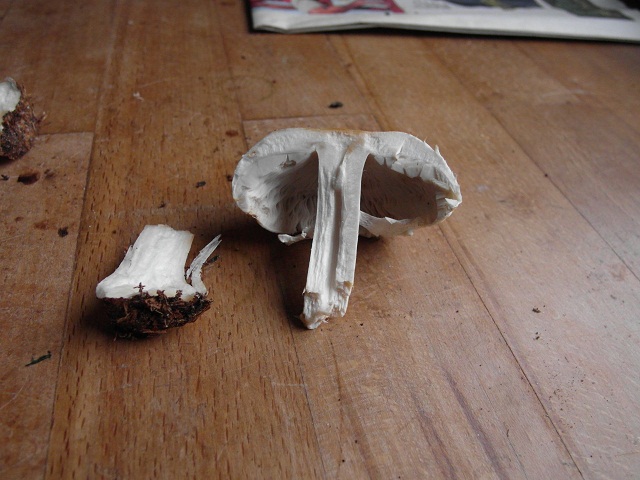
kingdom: Fungi
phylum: Basidiomycota
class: Agaricomycetes
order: Agaricales
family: Agaricaceae
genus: Agaricus
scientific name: Agaricus sylvicola
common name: skiveknoldet champignon
